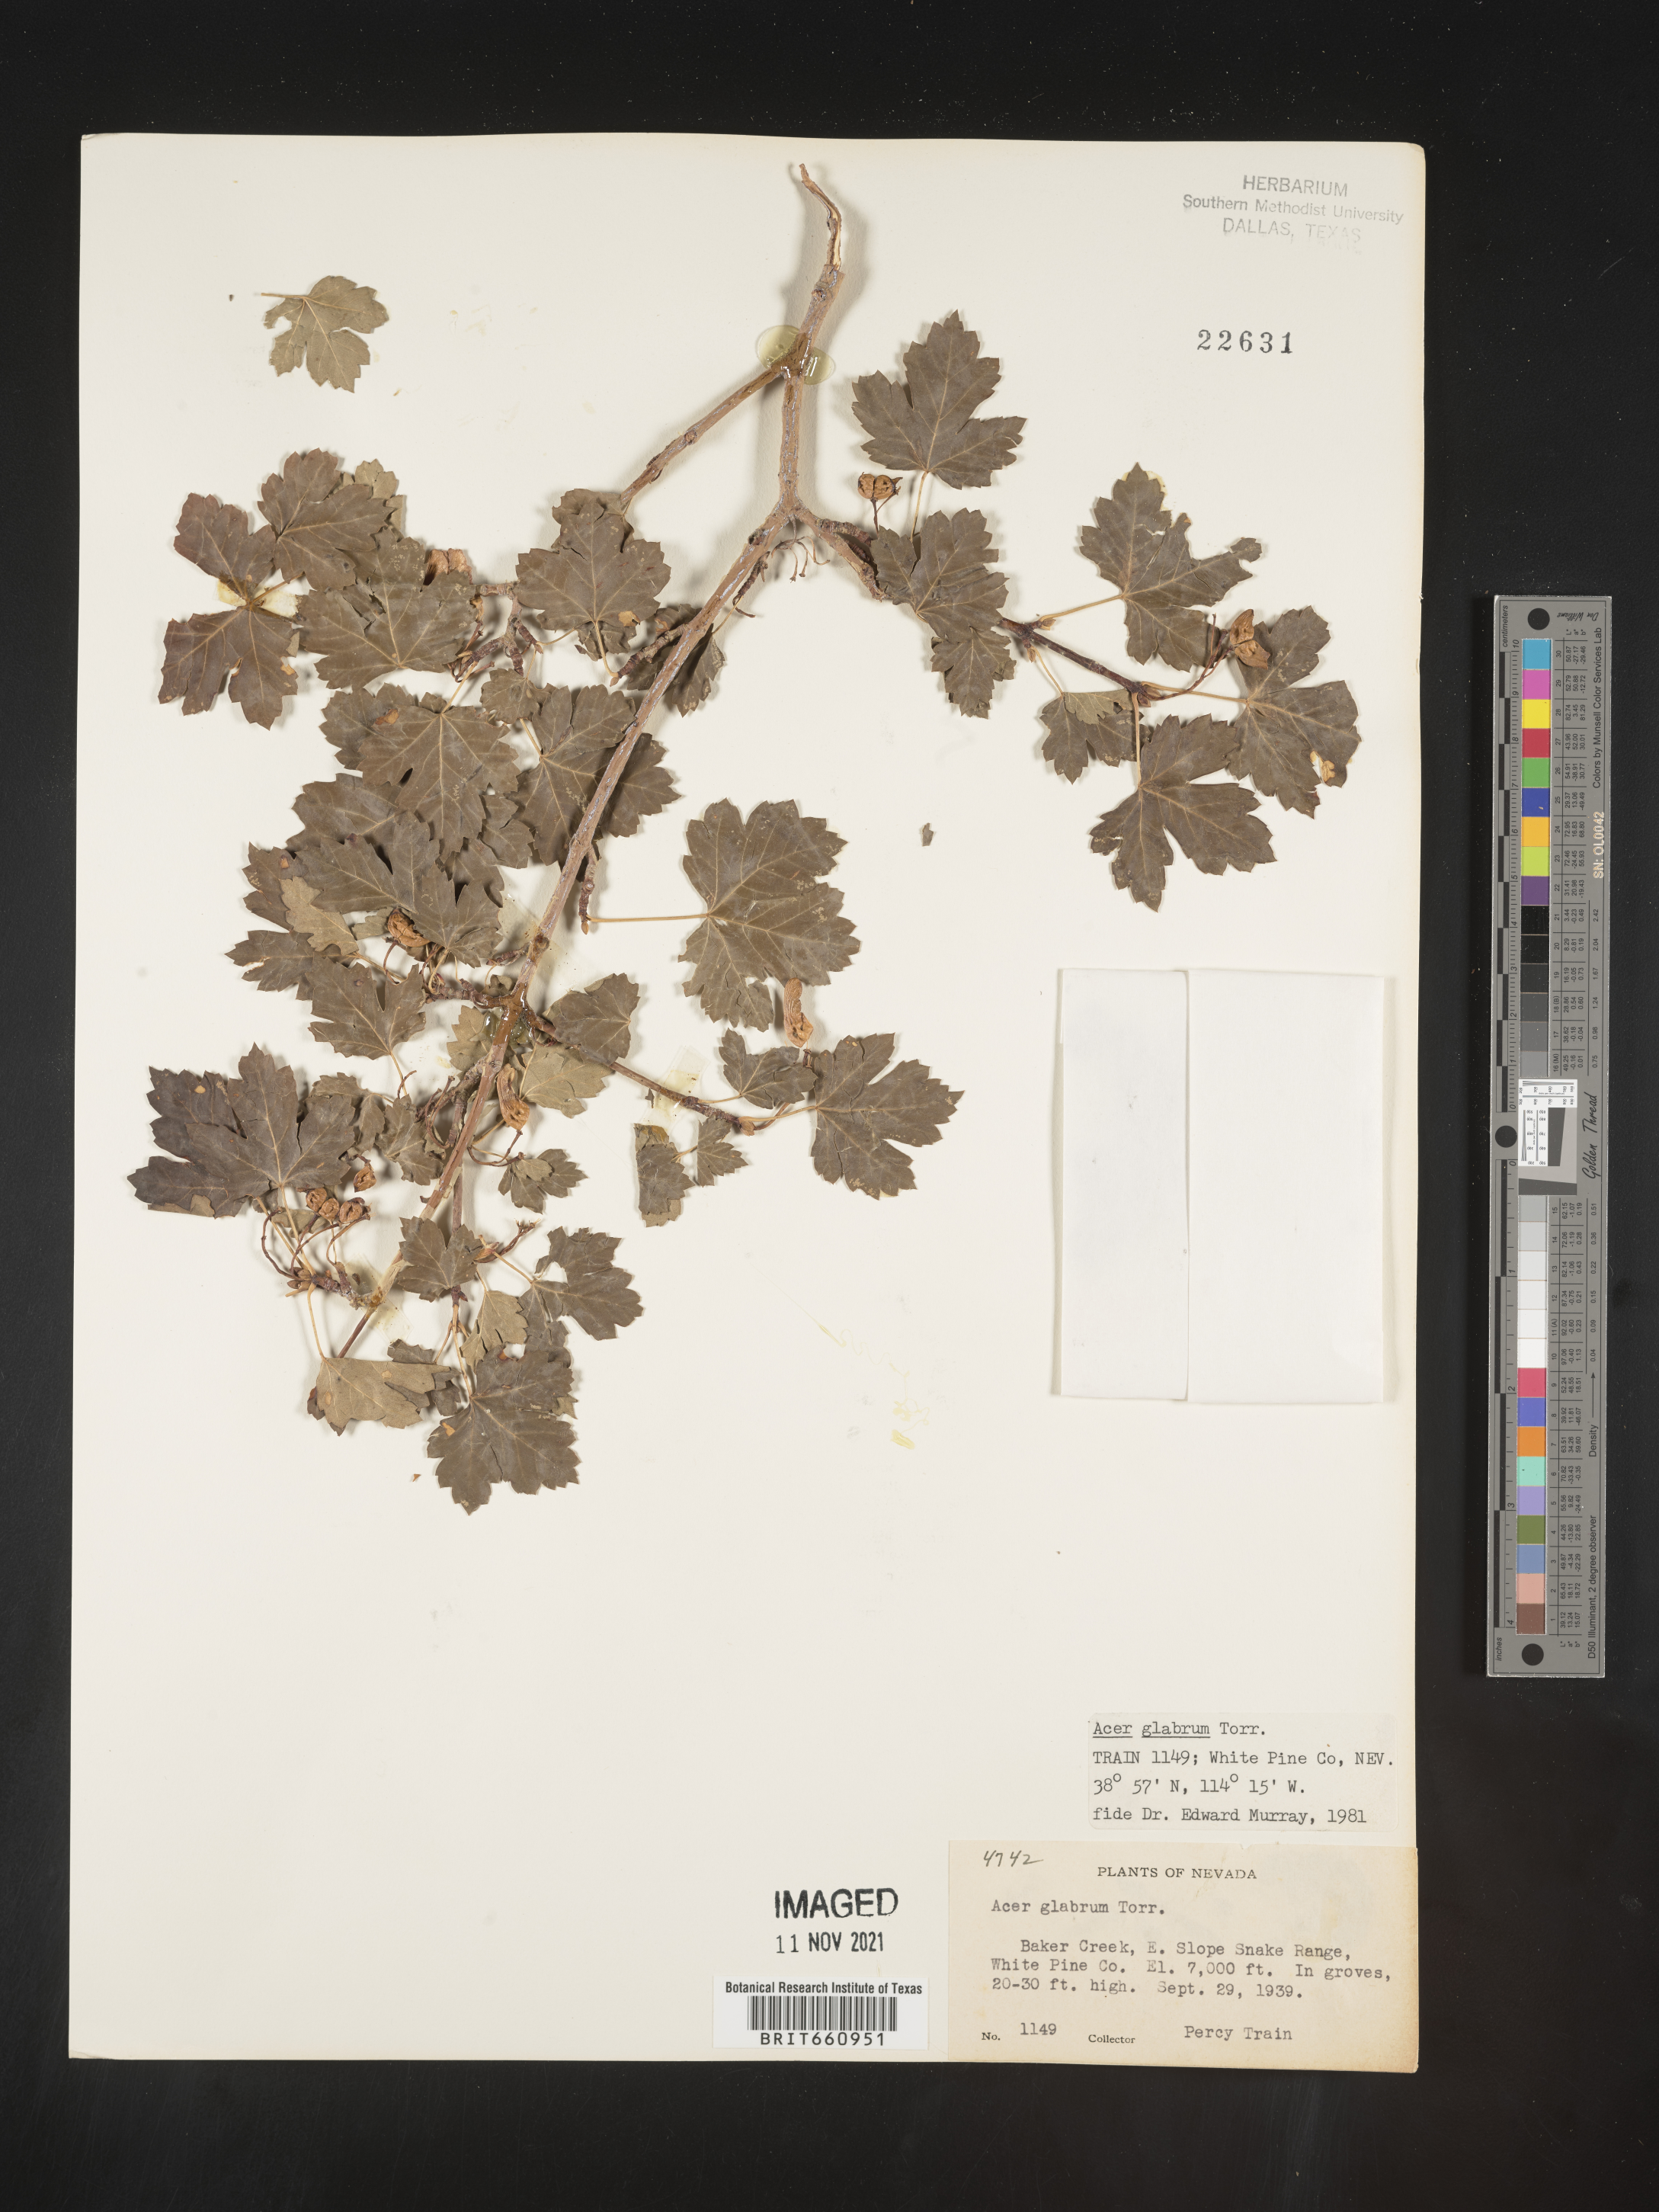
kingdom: Plantae
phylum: Tracheophyta
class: Magnoliopsida
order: Sapindales
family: Sapindaceae
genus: Acer
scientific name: Acer glabrum
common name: Rocky mountain maple
